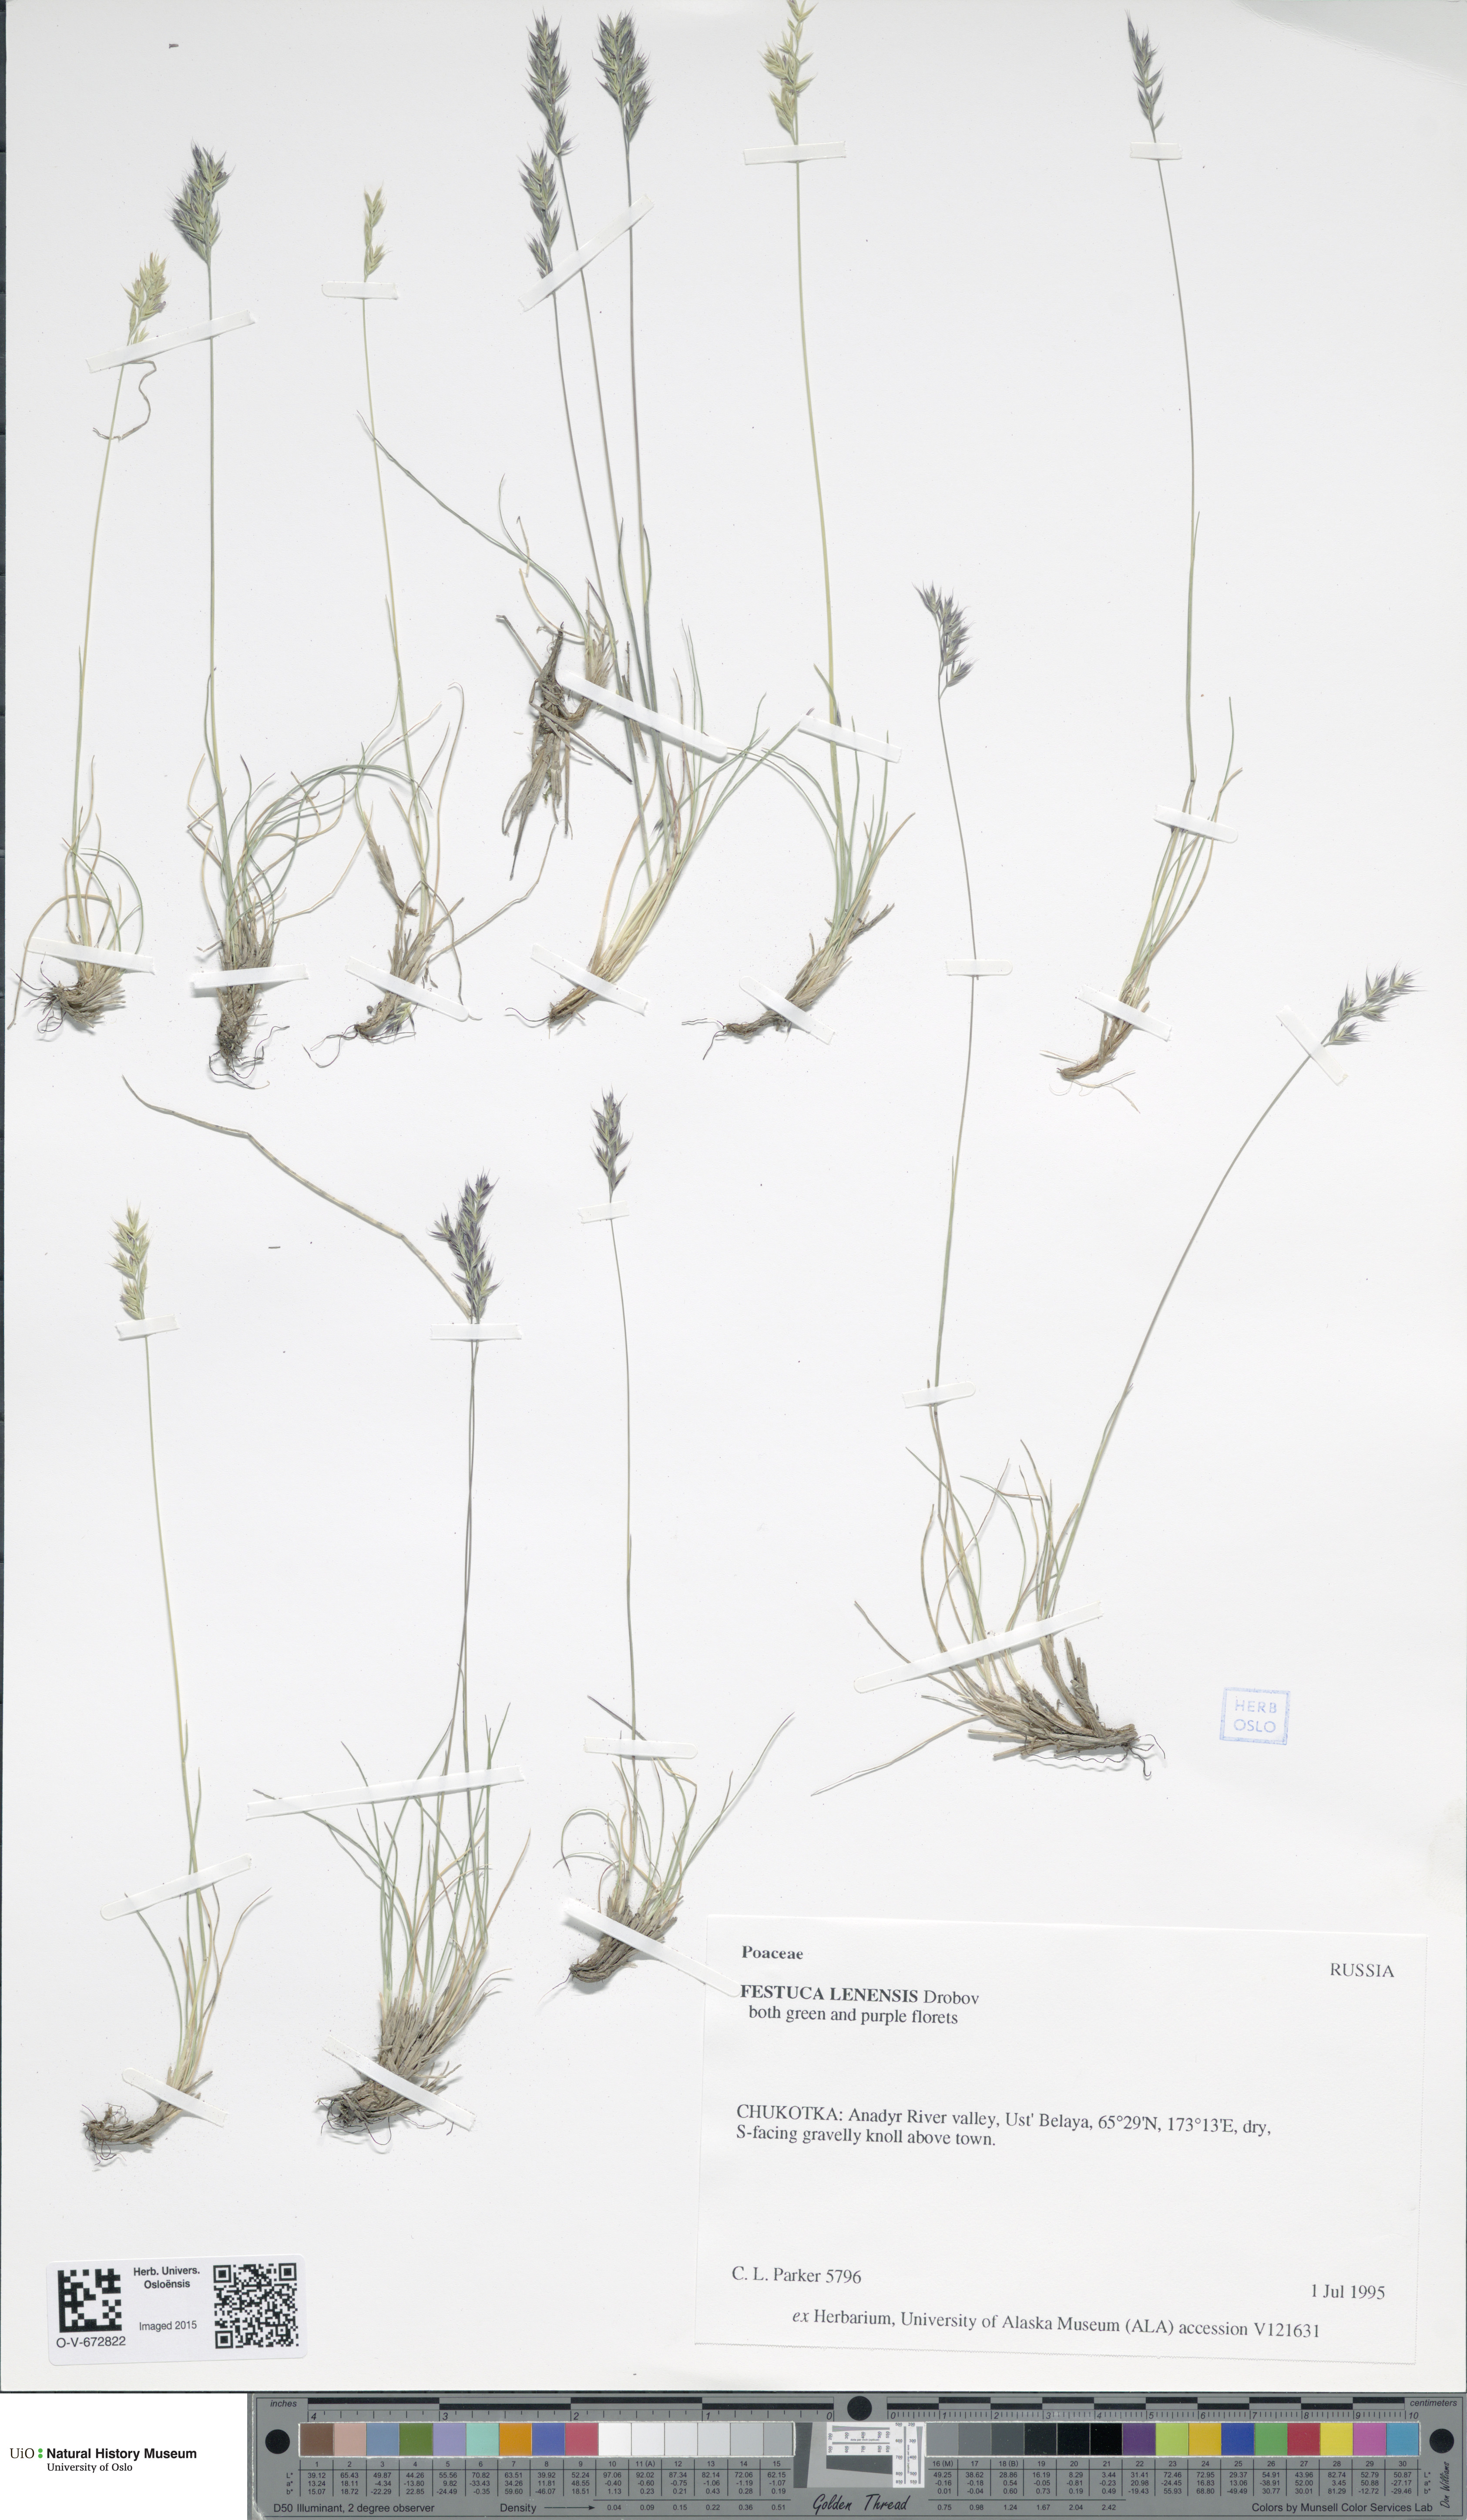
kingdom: Plantae
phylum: Tracheophyta
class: Liliopsida
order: Poales
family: Poaceae
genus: Festuca
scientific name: Festuca lenensis
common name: Lena river fescue
